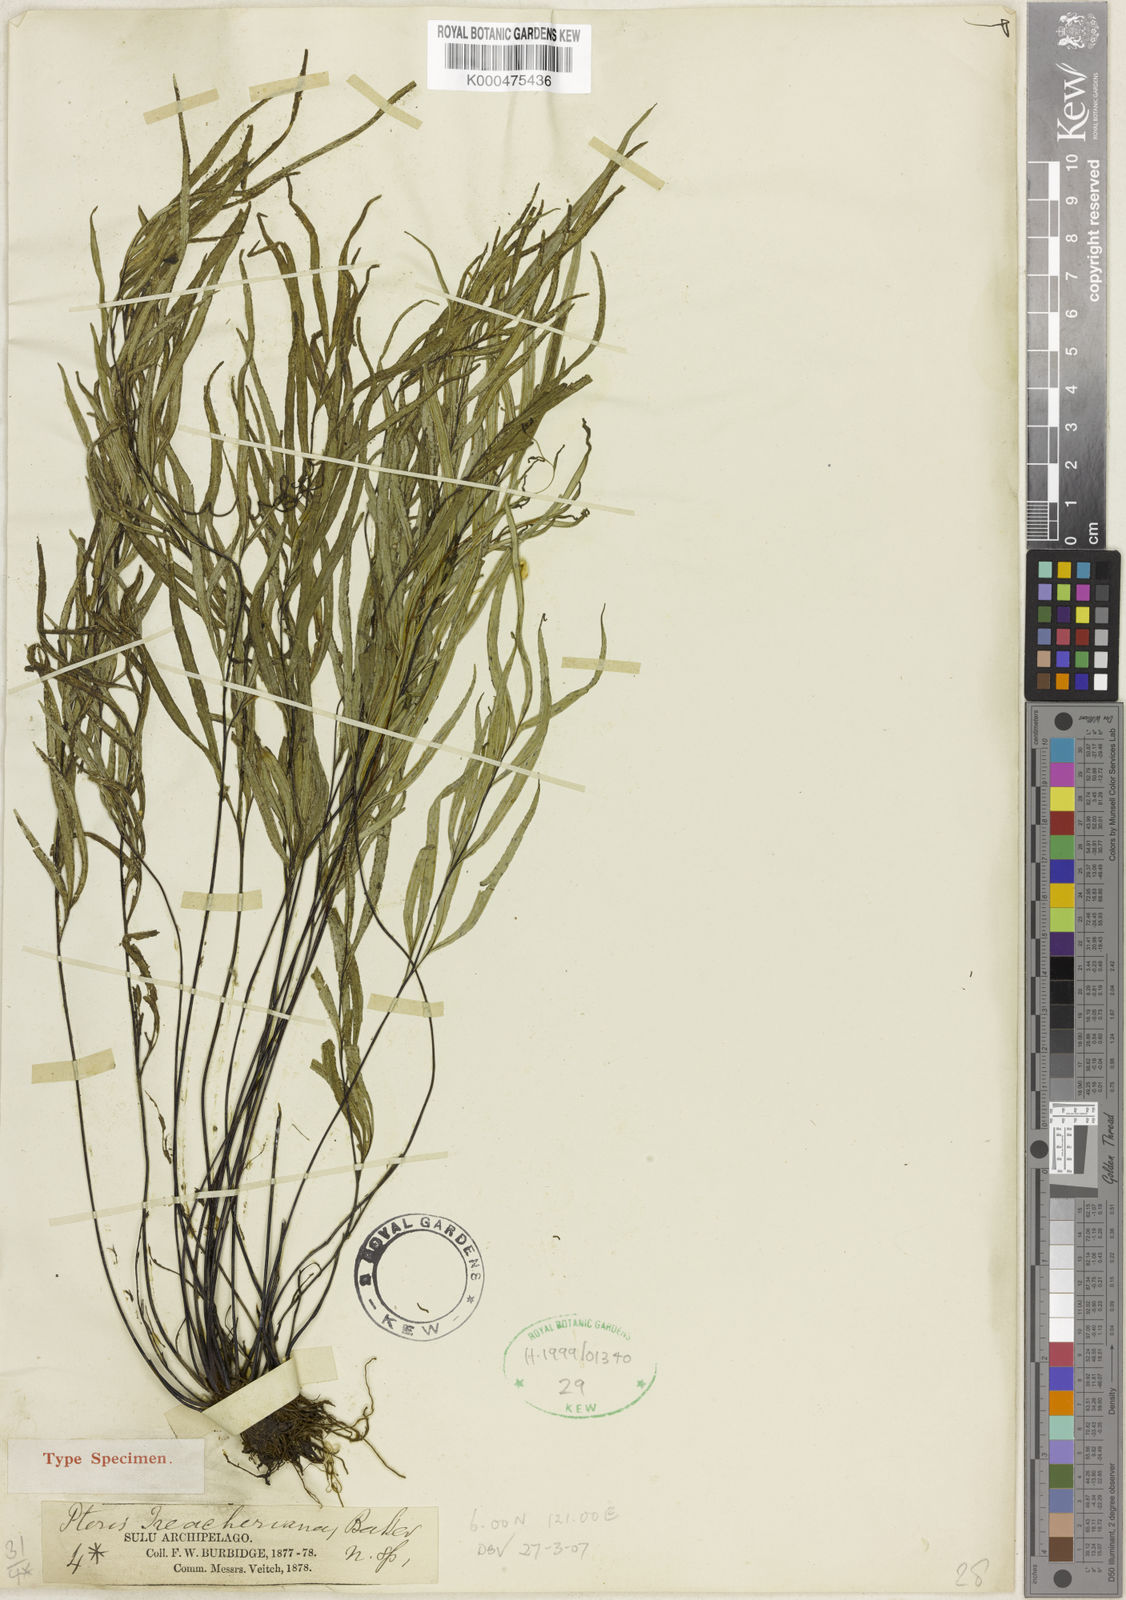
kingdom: Plantae
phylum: Tracheophyta
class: Polypodiopsida
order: Polypodiales
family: Pteridaceae
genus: Pteris
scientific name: Pteris
